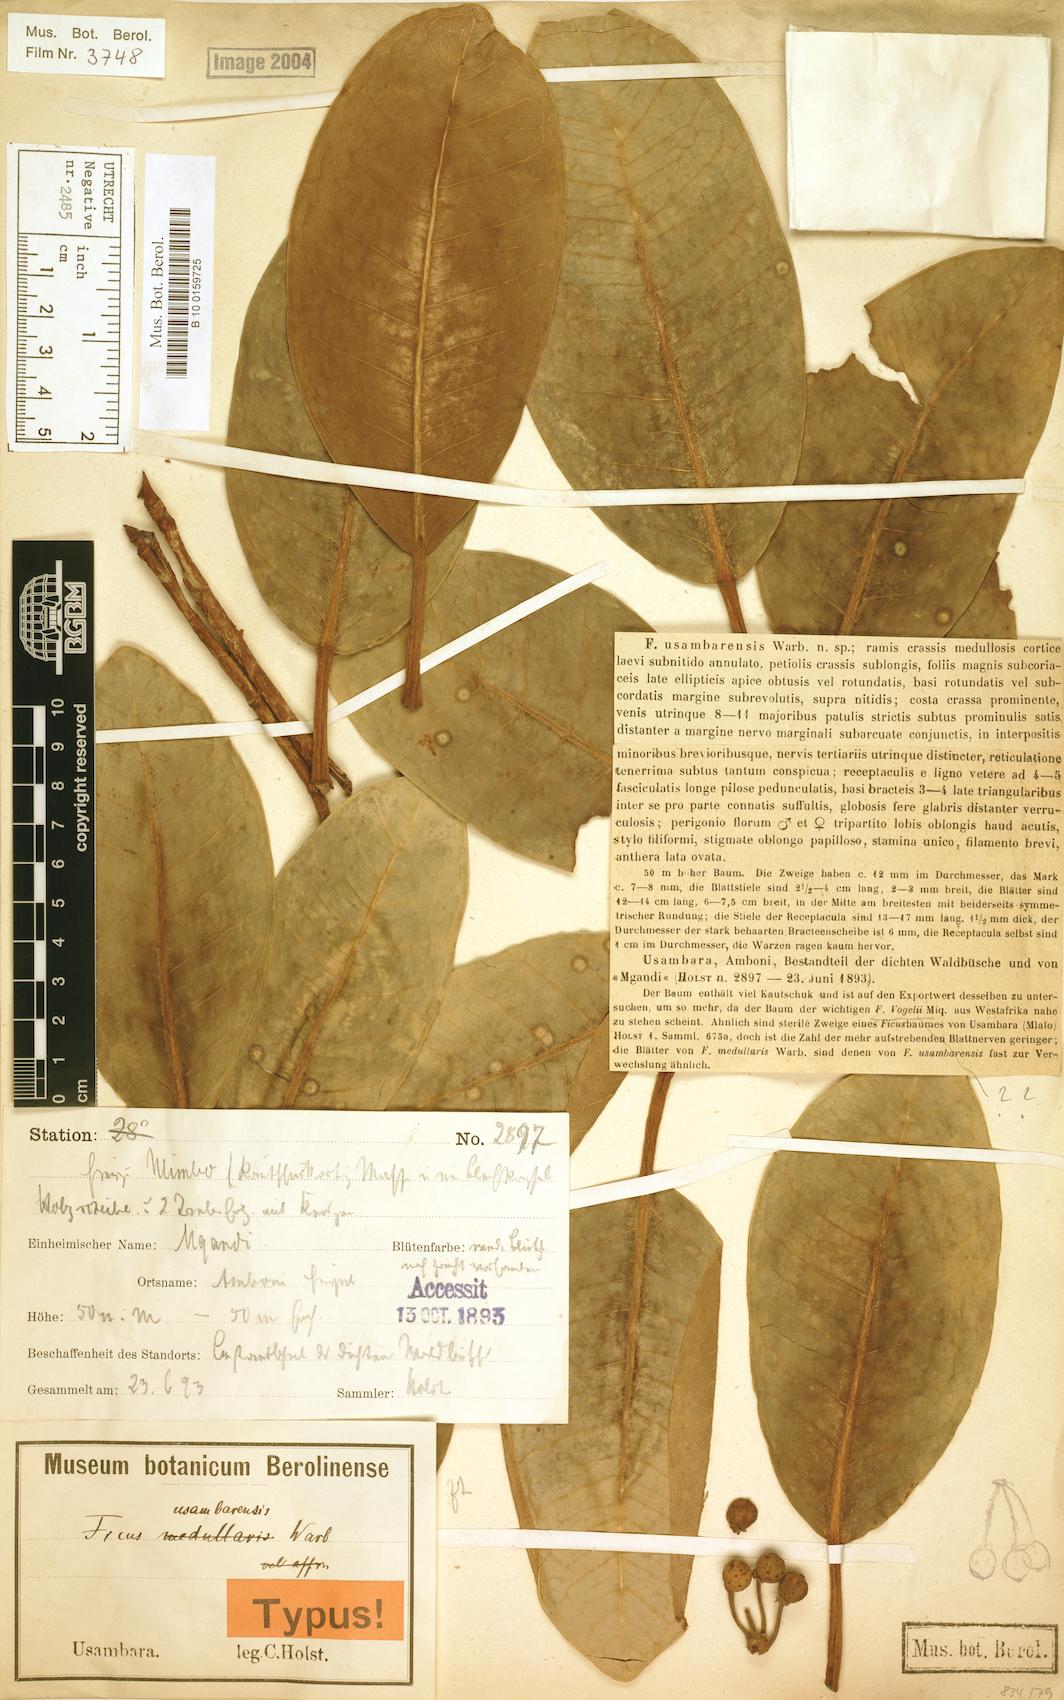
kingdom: Plantae
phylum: Tracheophyta
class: Magnoliopsida
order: Rosales
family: Moraceae
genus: Ficus
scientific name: Ficus usambarensis
